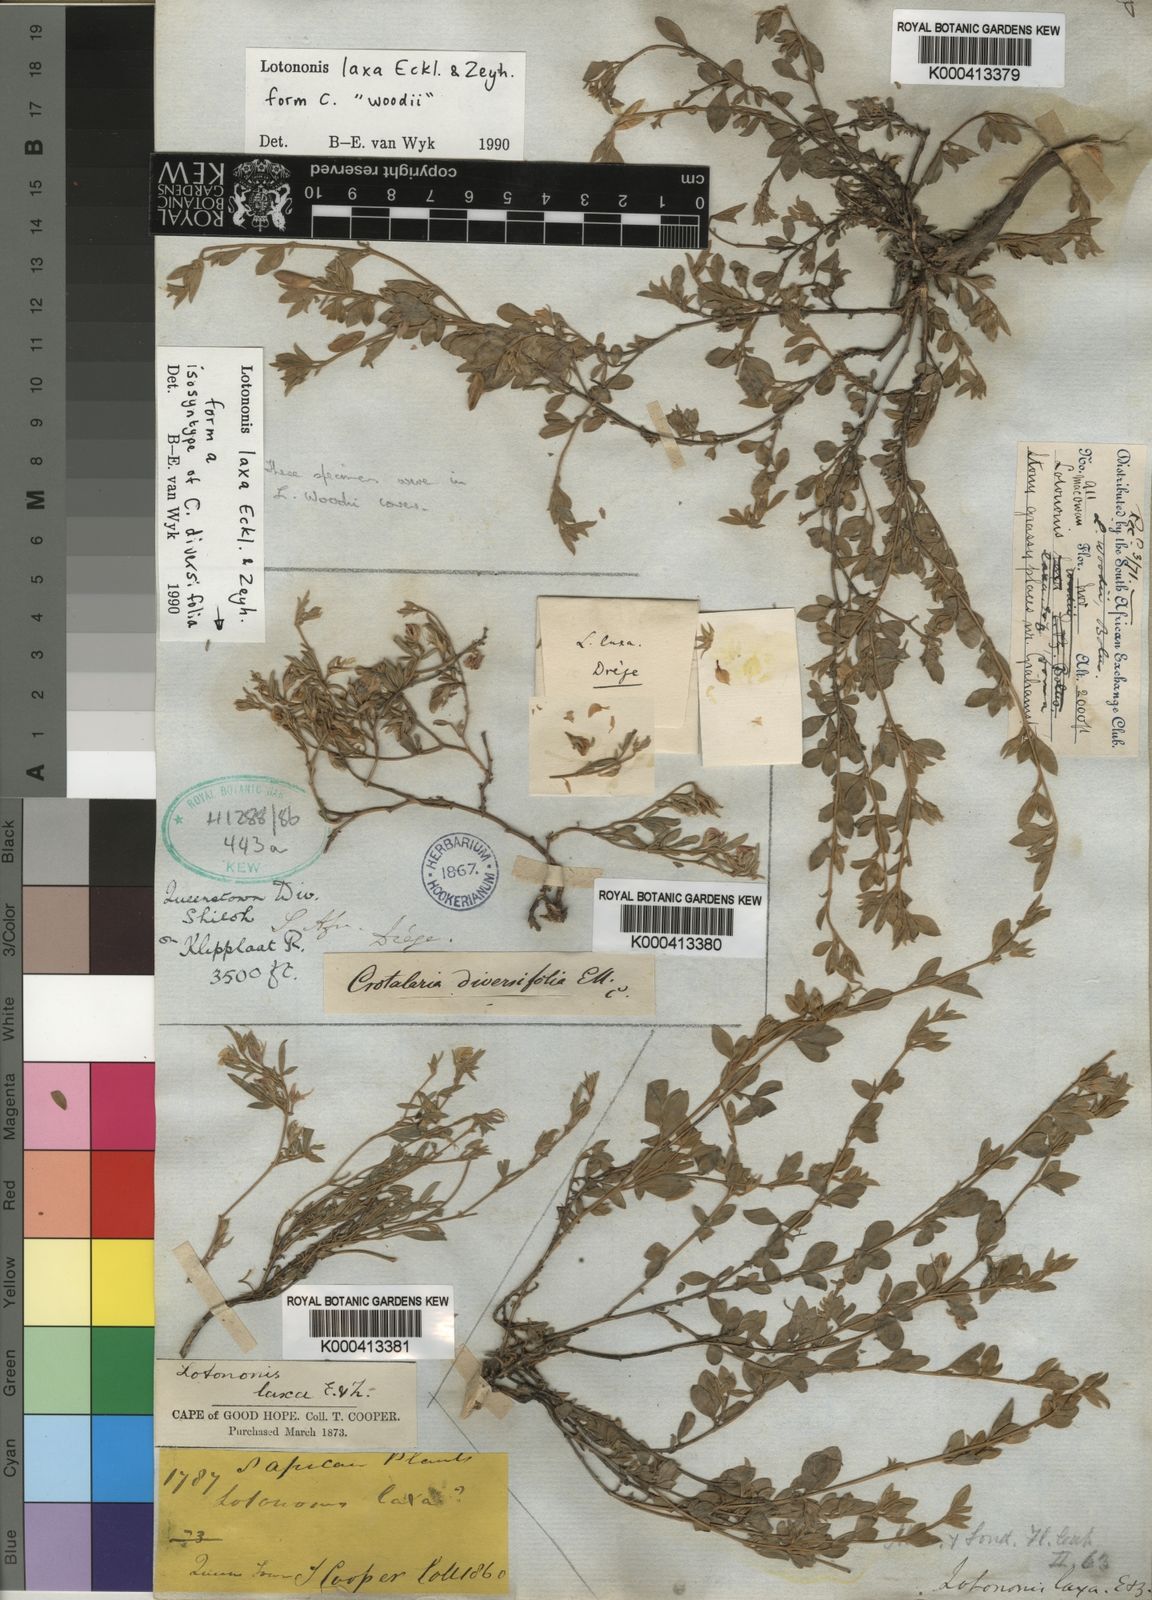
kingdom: Plantae
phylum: Tracheophyta
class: Magnoliopsida
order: Fabales
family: Fabaceae
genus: Lotononis
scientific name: Lotononis laxa
